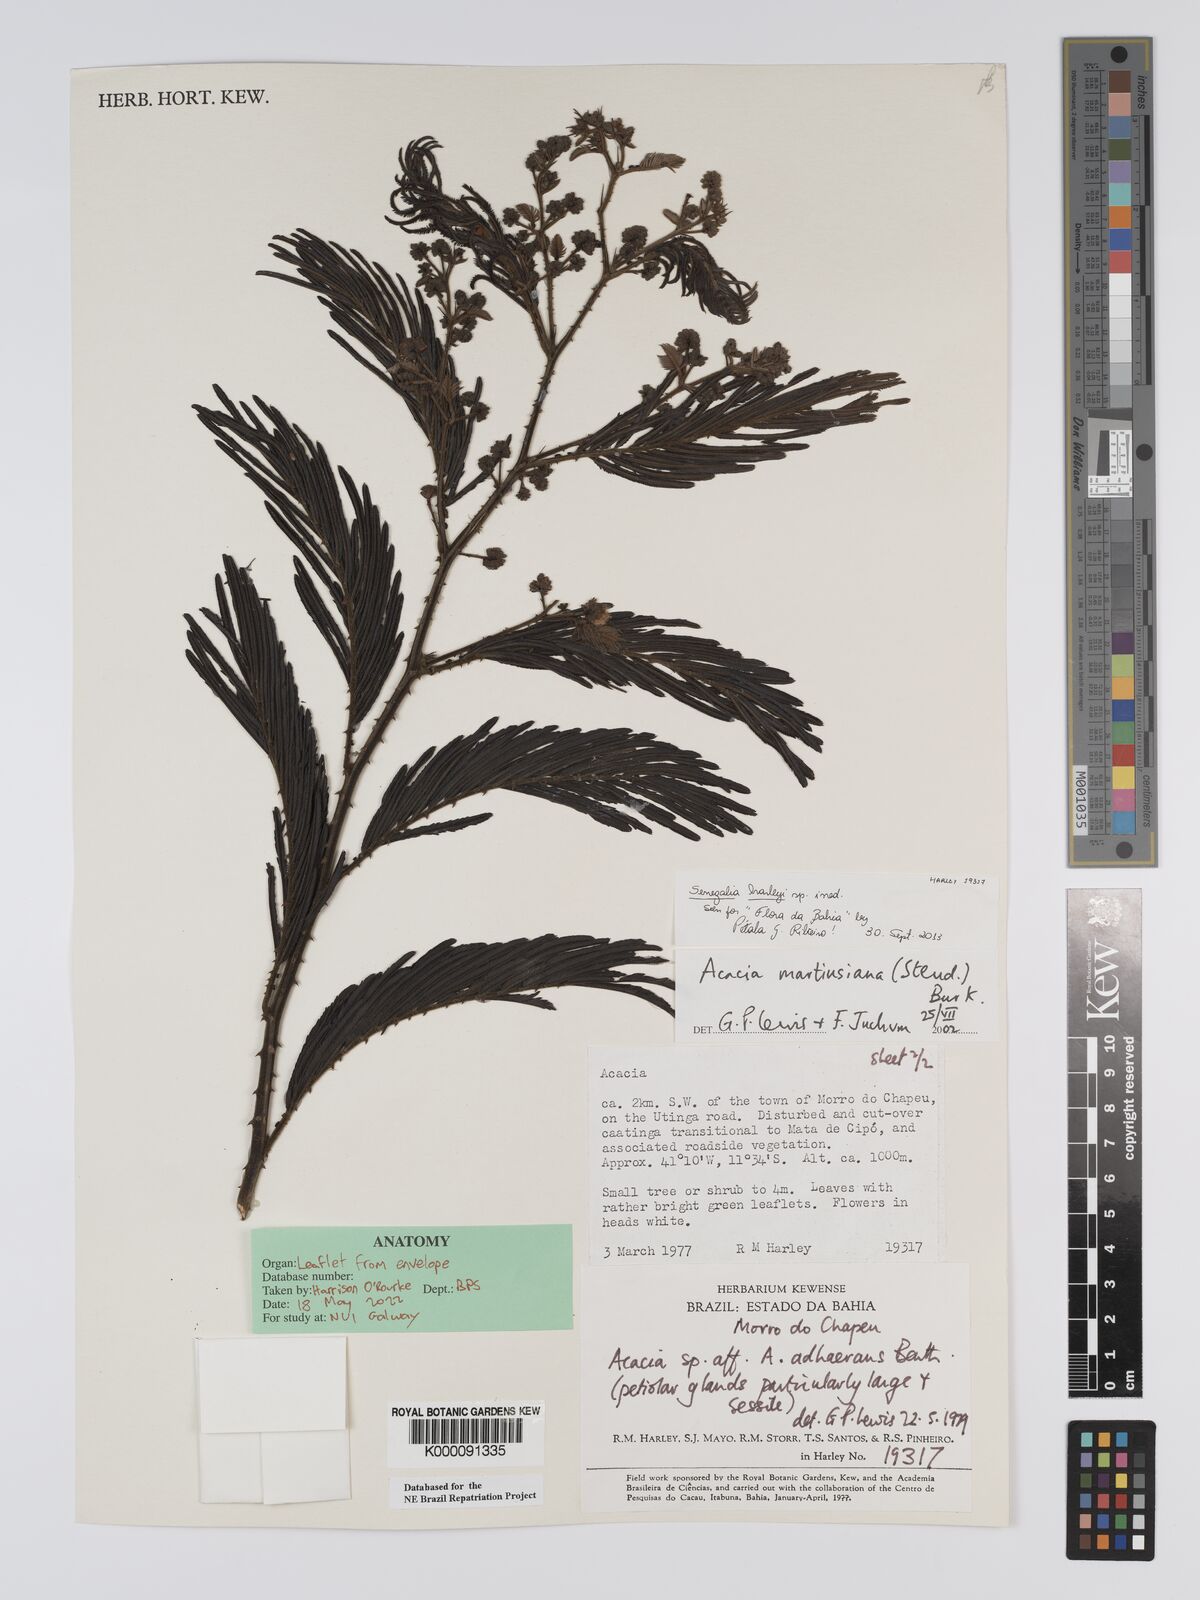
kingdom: Plantae
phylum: Tracheophyta
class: Magnoliopsida
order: Fabales
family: Fabaceae
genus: Senegalia
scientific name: Senegalia martiusiana
